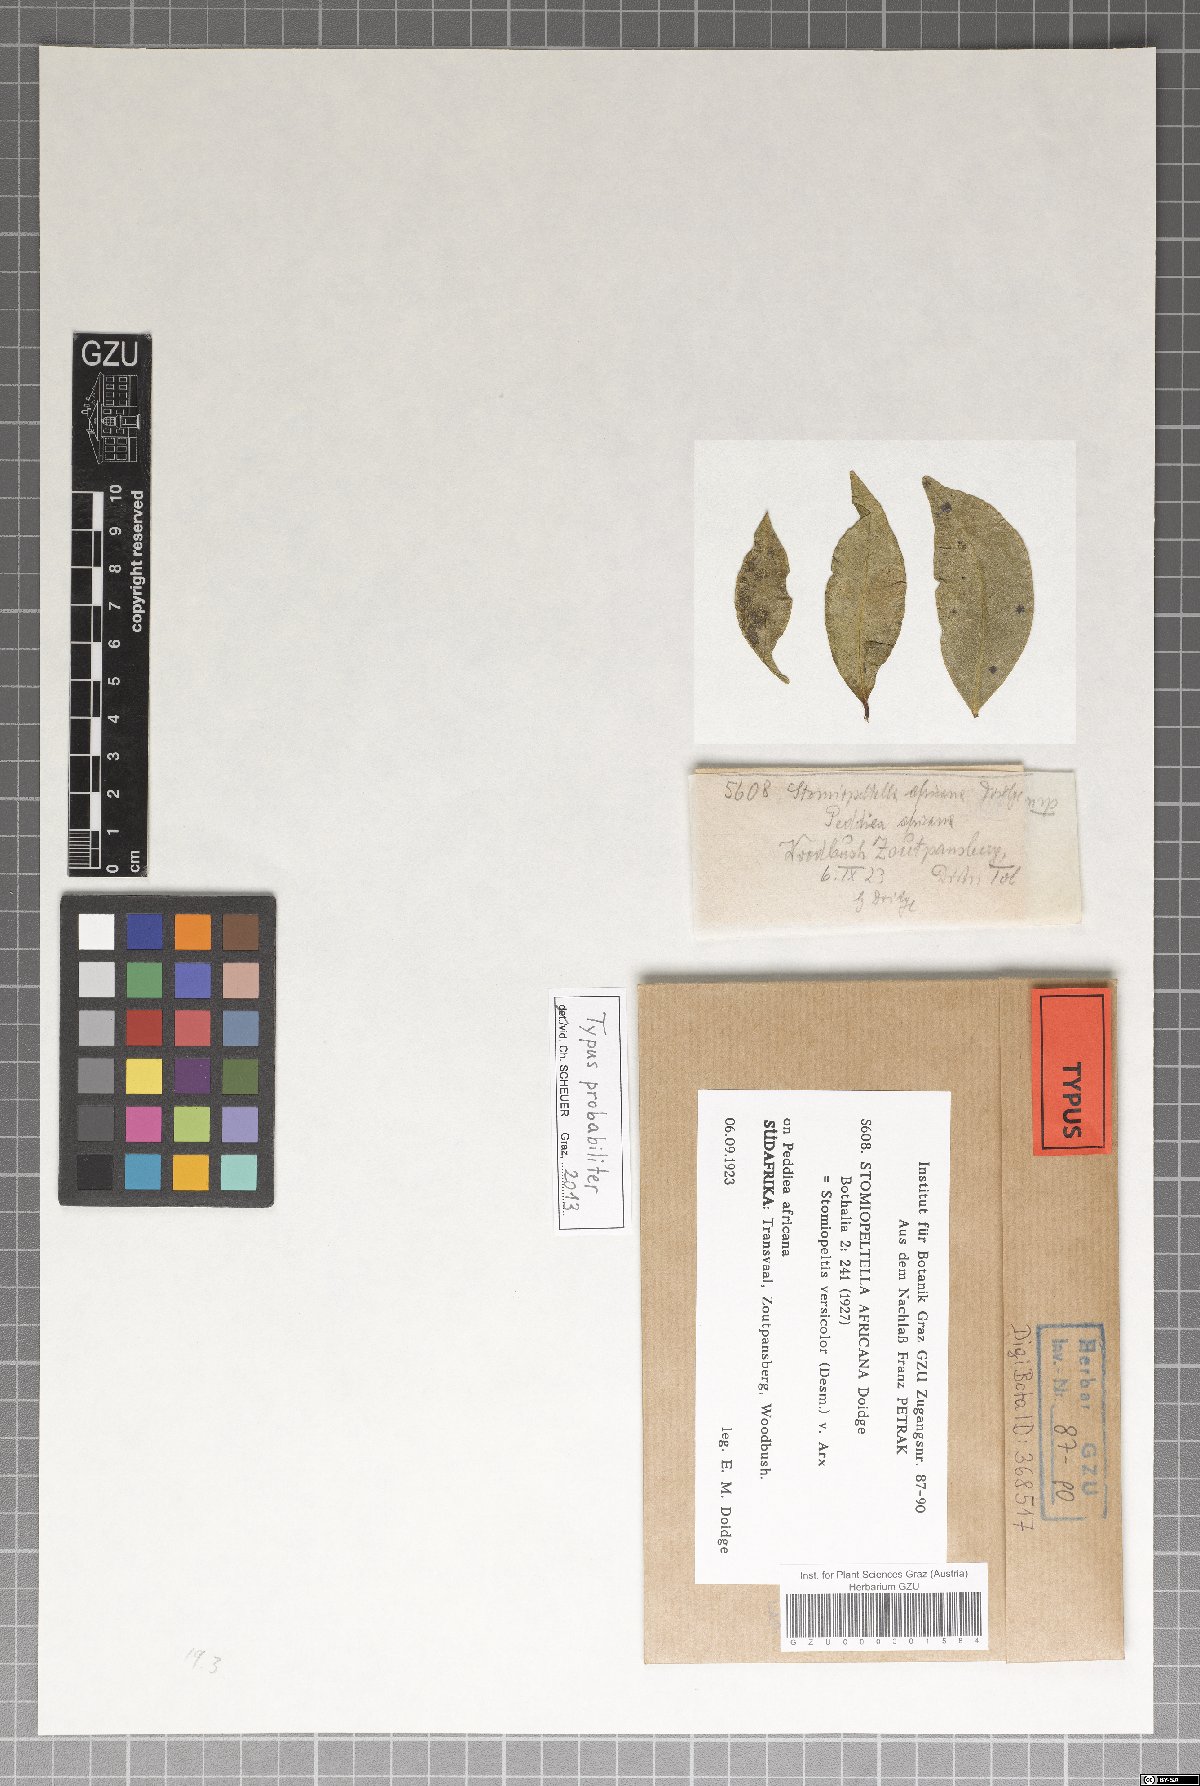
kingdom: Fungi
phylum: Ascomycota
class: Dothideomycetes
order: Asterinales
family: Asterinaceae
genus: Echidnodes
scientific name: Echidnodes africana
